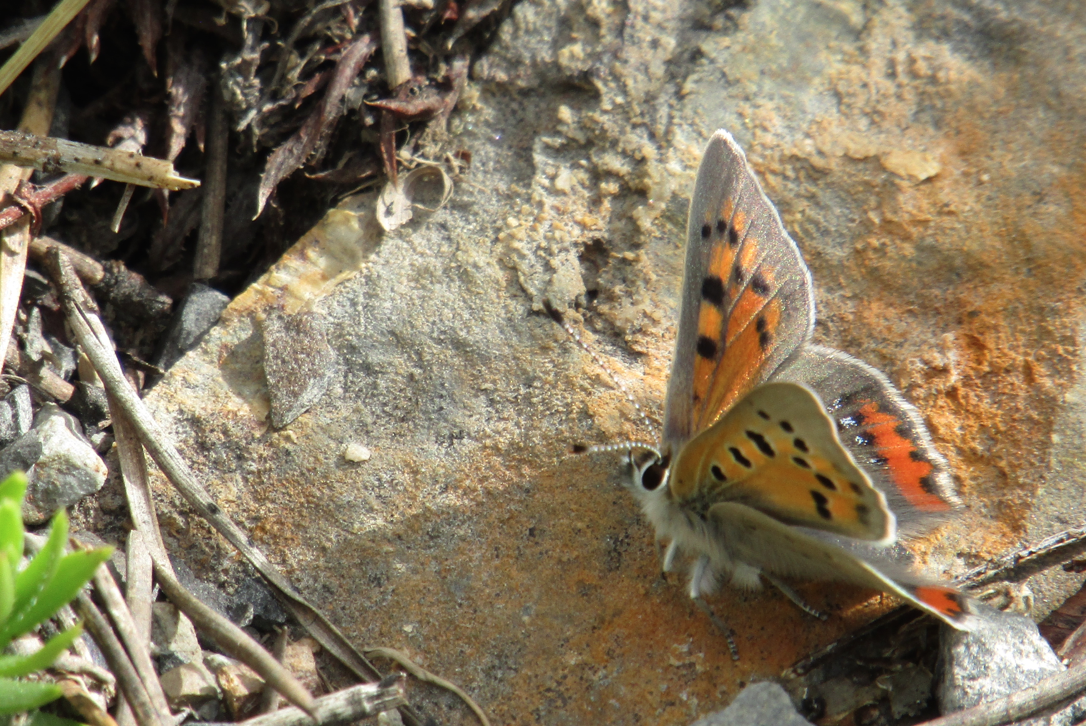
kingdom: Animalia
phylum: Arthropoda
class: Insecta
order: Lepidoptera
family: Lycaenidae
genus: Lycaena
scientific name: Lycaena phlaeas
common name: American Copper
